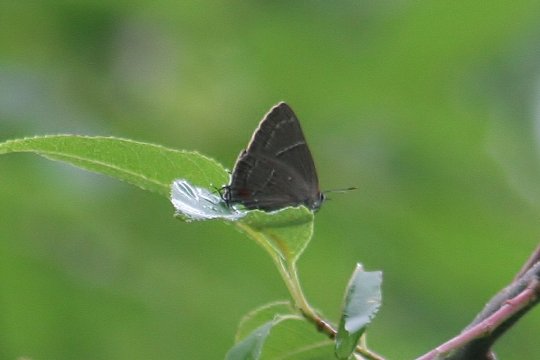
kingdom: Animalia
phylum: Arthropoda
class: Insecta
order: Lepidoptera
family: Lycaenidae
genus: Parrhasius
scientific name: Parrhasius m-album
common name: White-m Hairstreak
